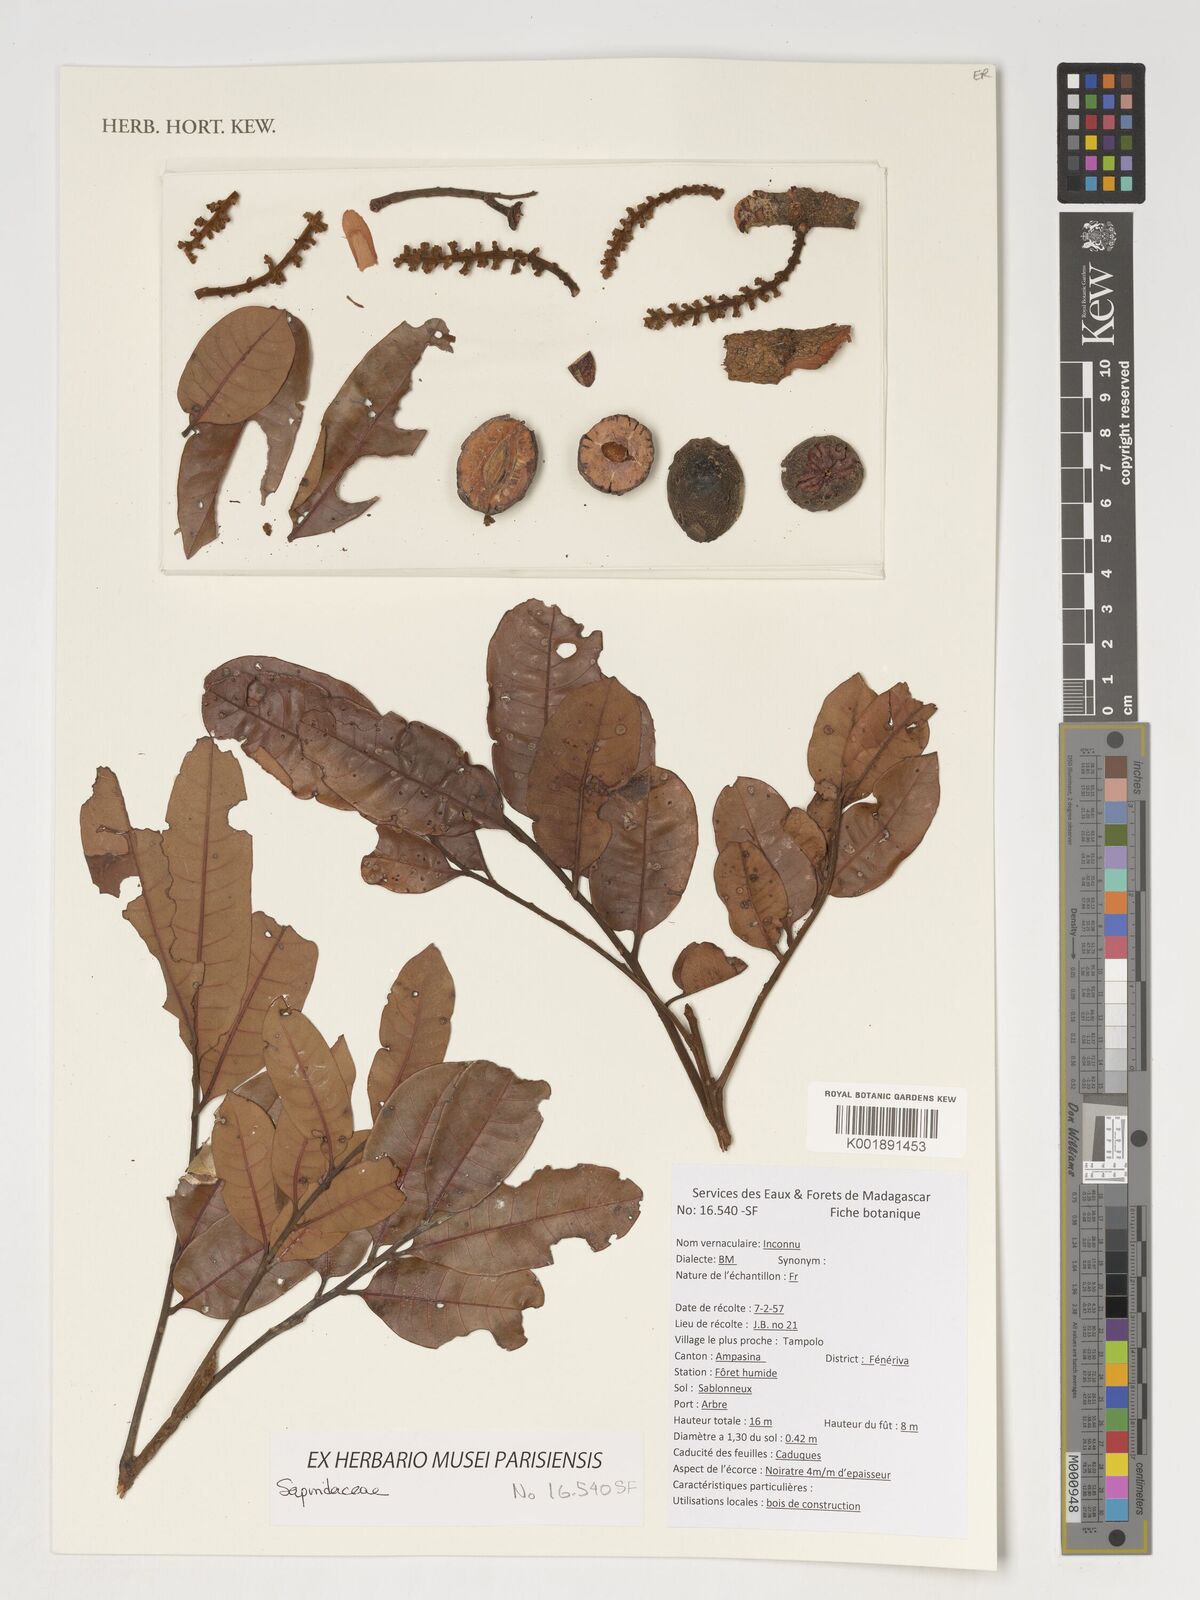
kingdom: Plantae
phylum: Tracheophyta
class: Magnoliopsida
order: Sapindales
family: Sapindaceae
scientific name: Sapindaceae
